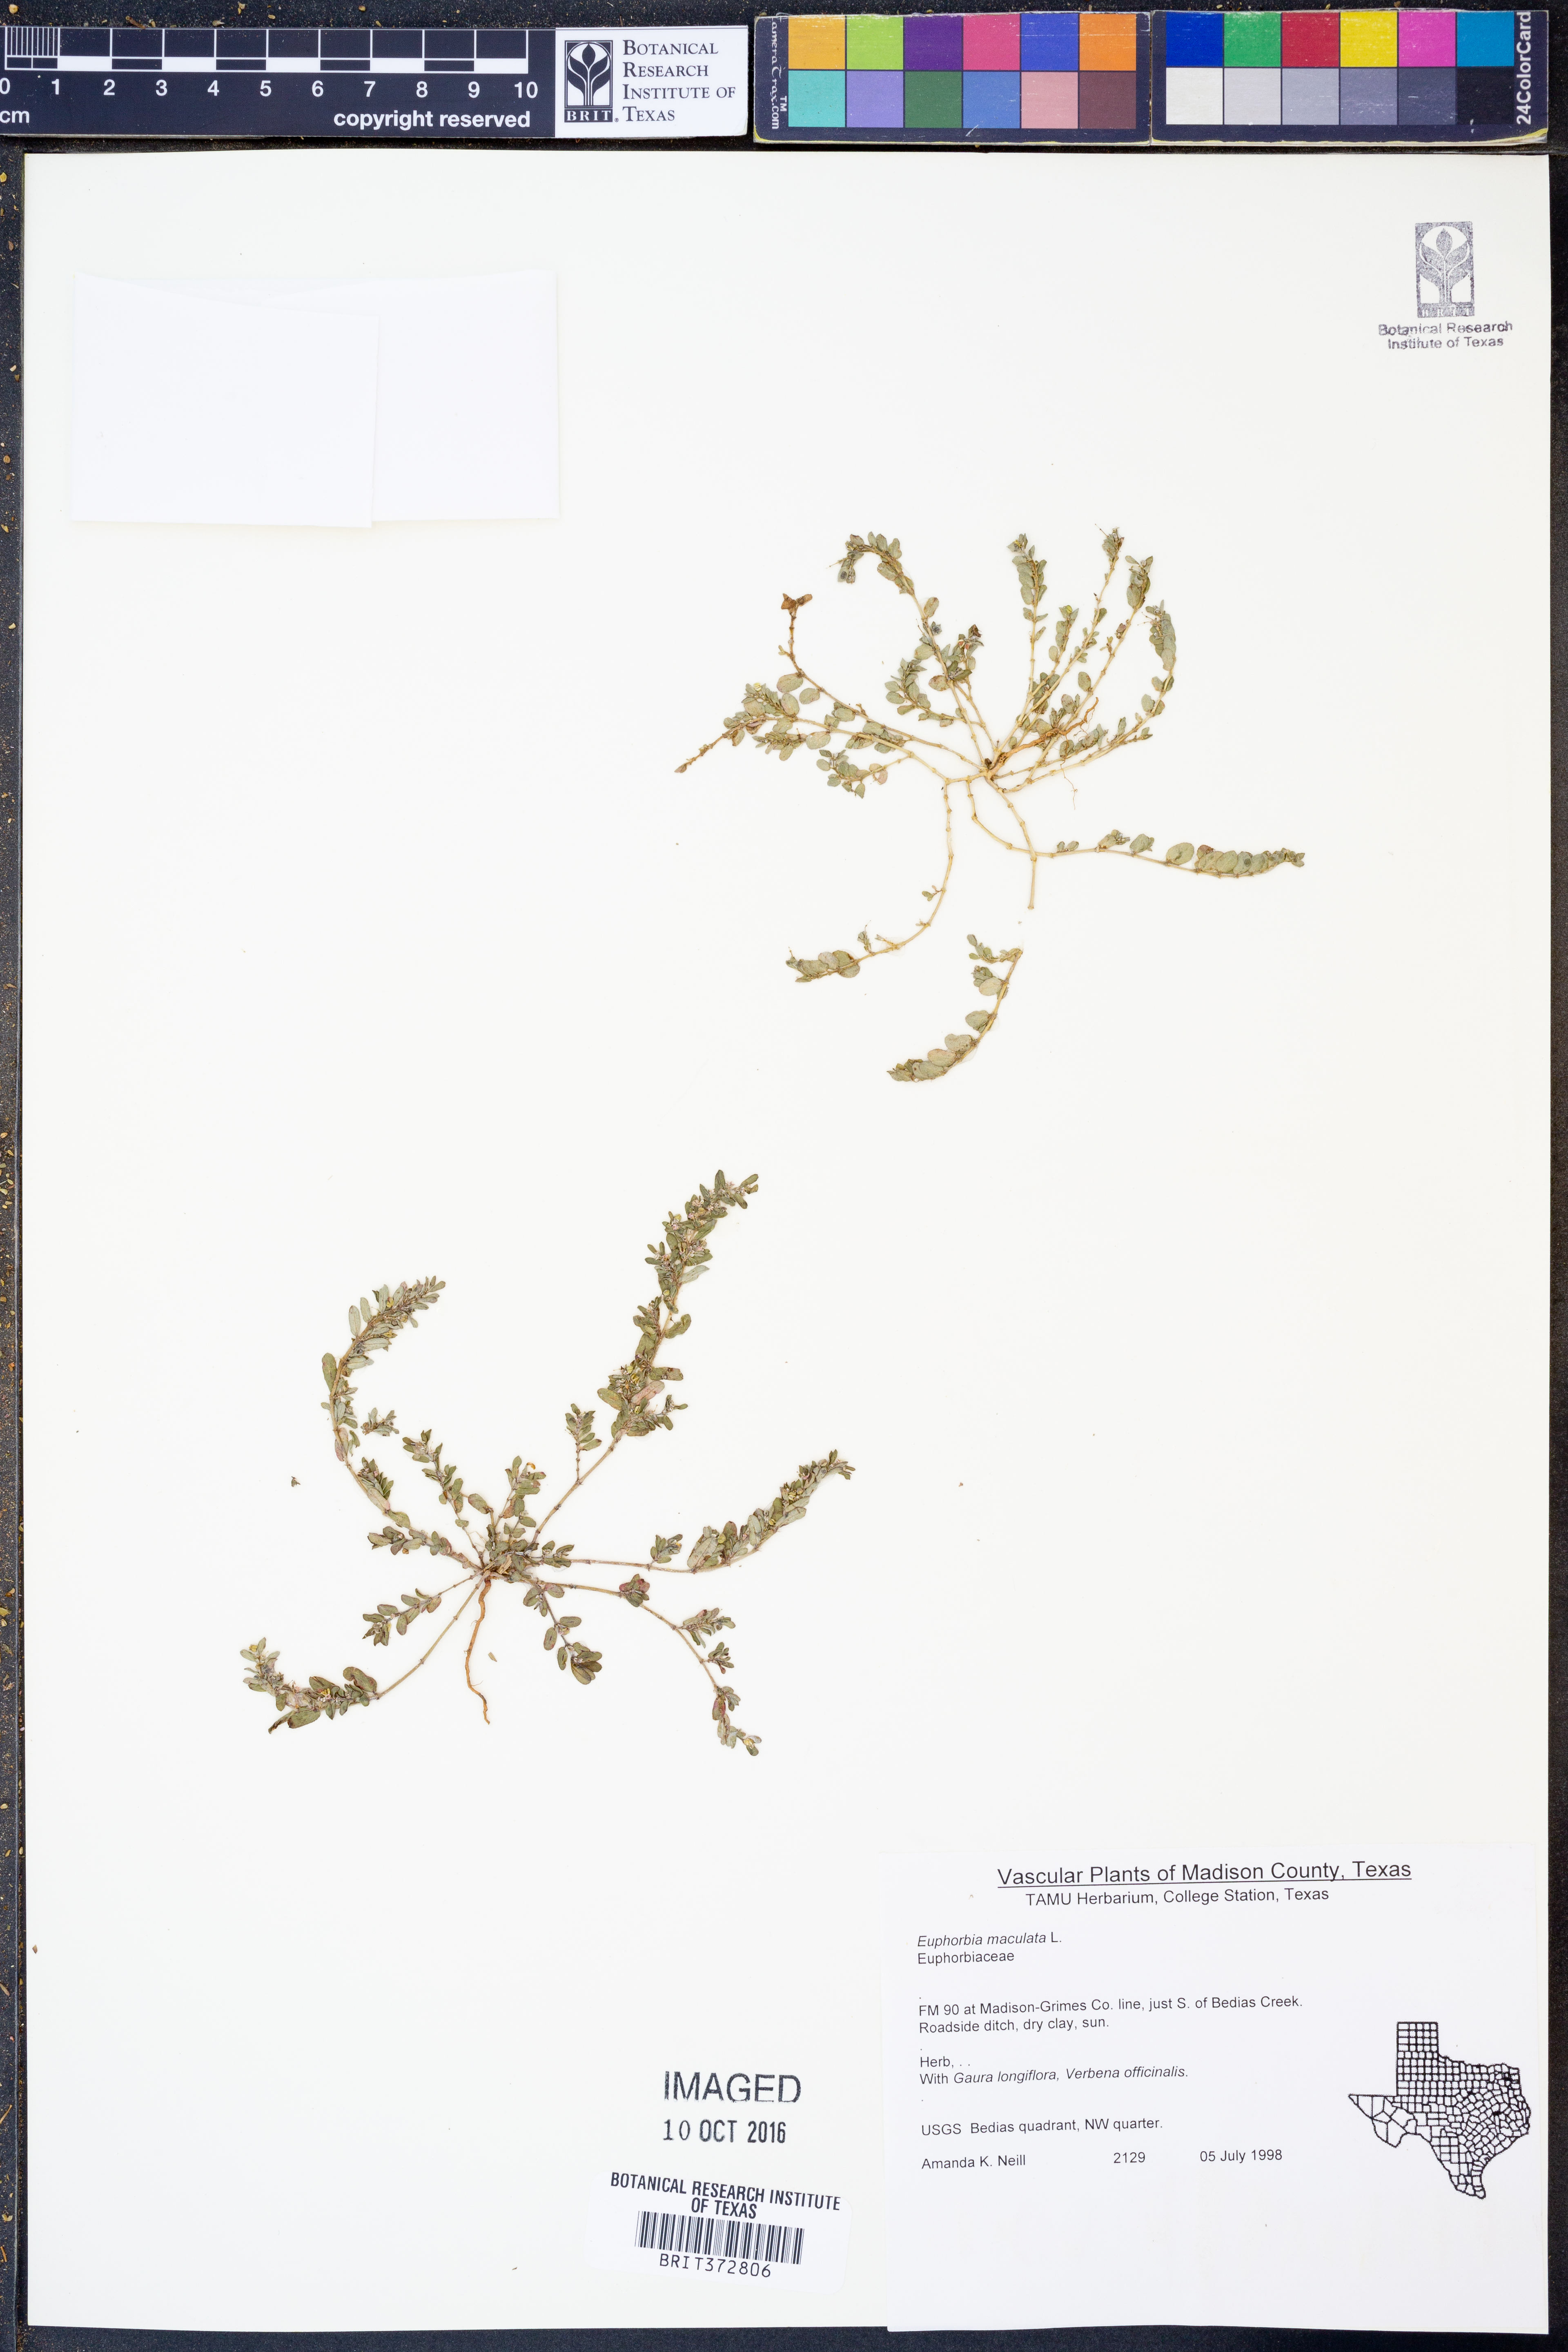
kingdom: Plantae
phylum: Tracheophyta
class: Magnoliopsida
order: Malpighiales
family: Euphorbiaceae
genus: Euphorbia
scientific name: Euphorbia maculata
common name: Spotted spurge
